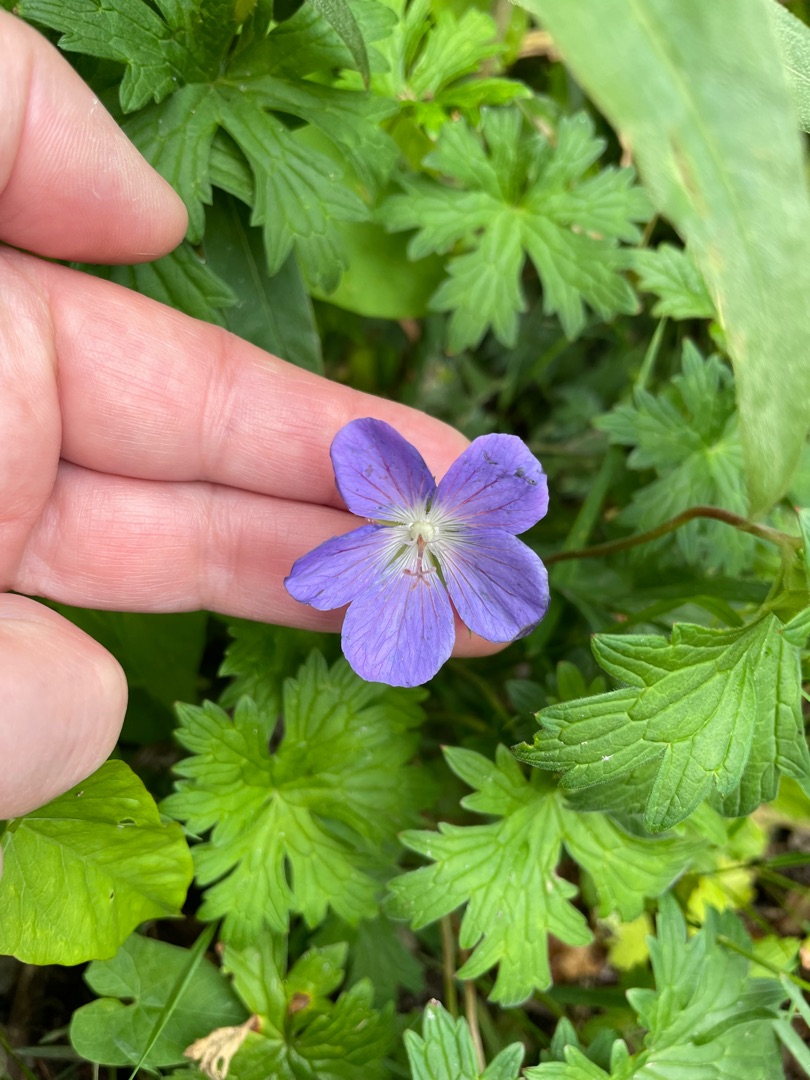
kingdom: Plantae
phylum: Tracheophyta
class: Magnoliopsida
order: Geraniales
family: Geraniaceae
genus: Geranium
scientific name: Geranium pratense
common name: Eng-storkenæb
